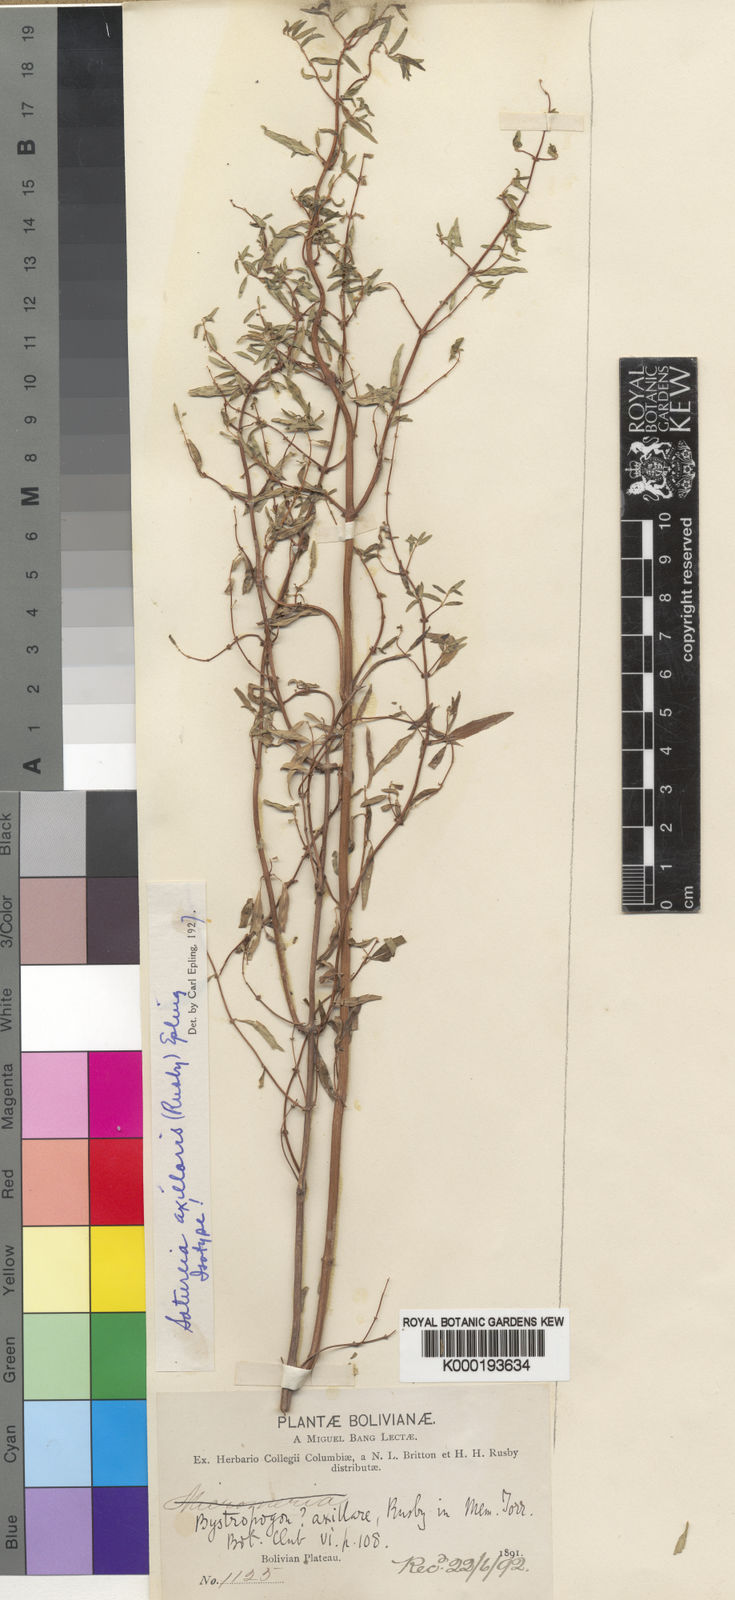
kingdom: Plantae
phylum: Tracheophyta
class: Magnoliopsida
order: Lamiales
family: Lamiaceae
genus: Clinopodium
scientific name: Clinopodium axillare
